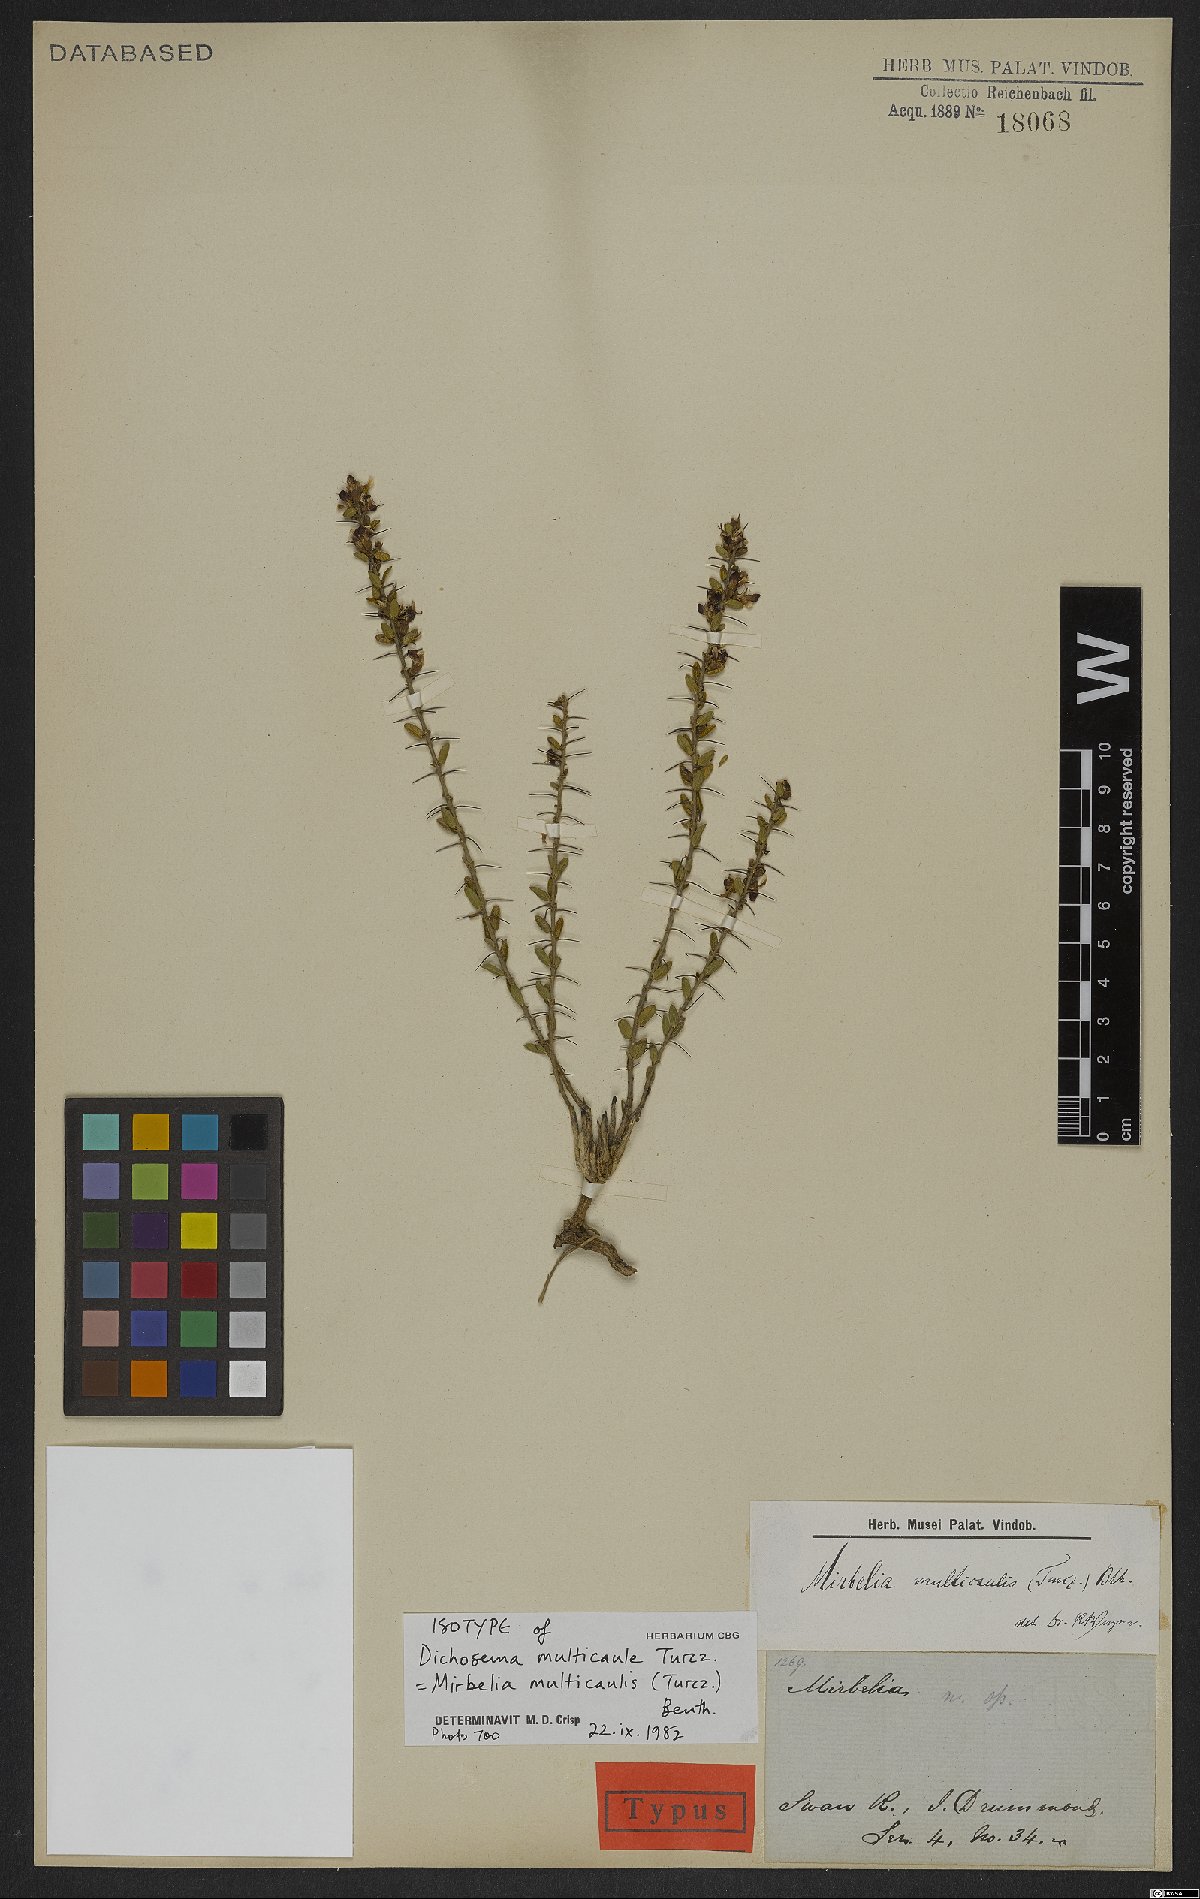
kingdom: Plantae
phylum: Tracheophyta
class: Magnoliopsida
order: Fabales
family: Fabaceae
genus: Mirbelia
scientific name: Mirbelia multicaulis
